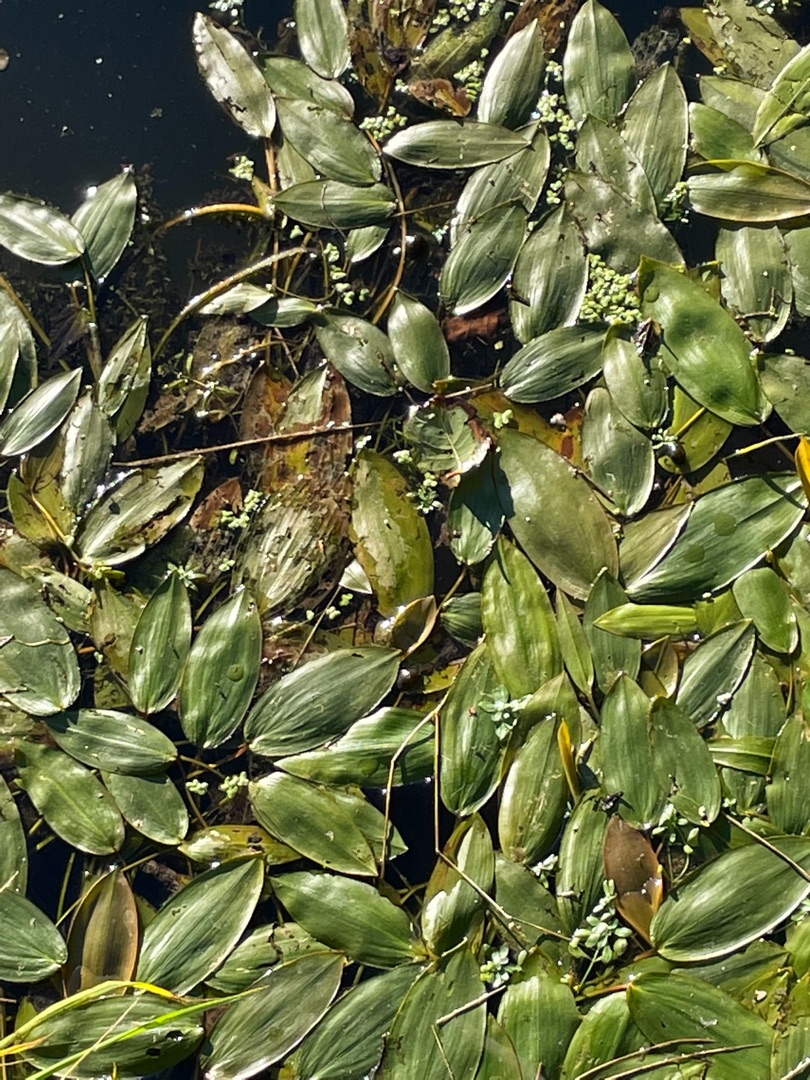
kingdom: Plantae
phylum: Tracheophyta
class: Liliopsida
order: Alismatales
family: Potamogetonaceae
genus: Potamogeton
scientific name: Potamogeton natans
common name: Svømmende vandaks
